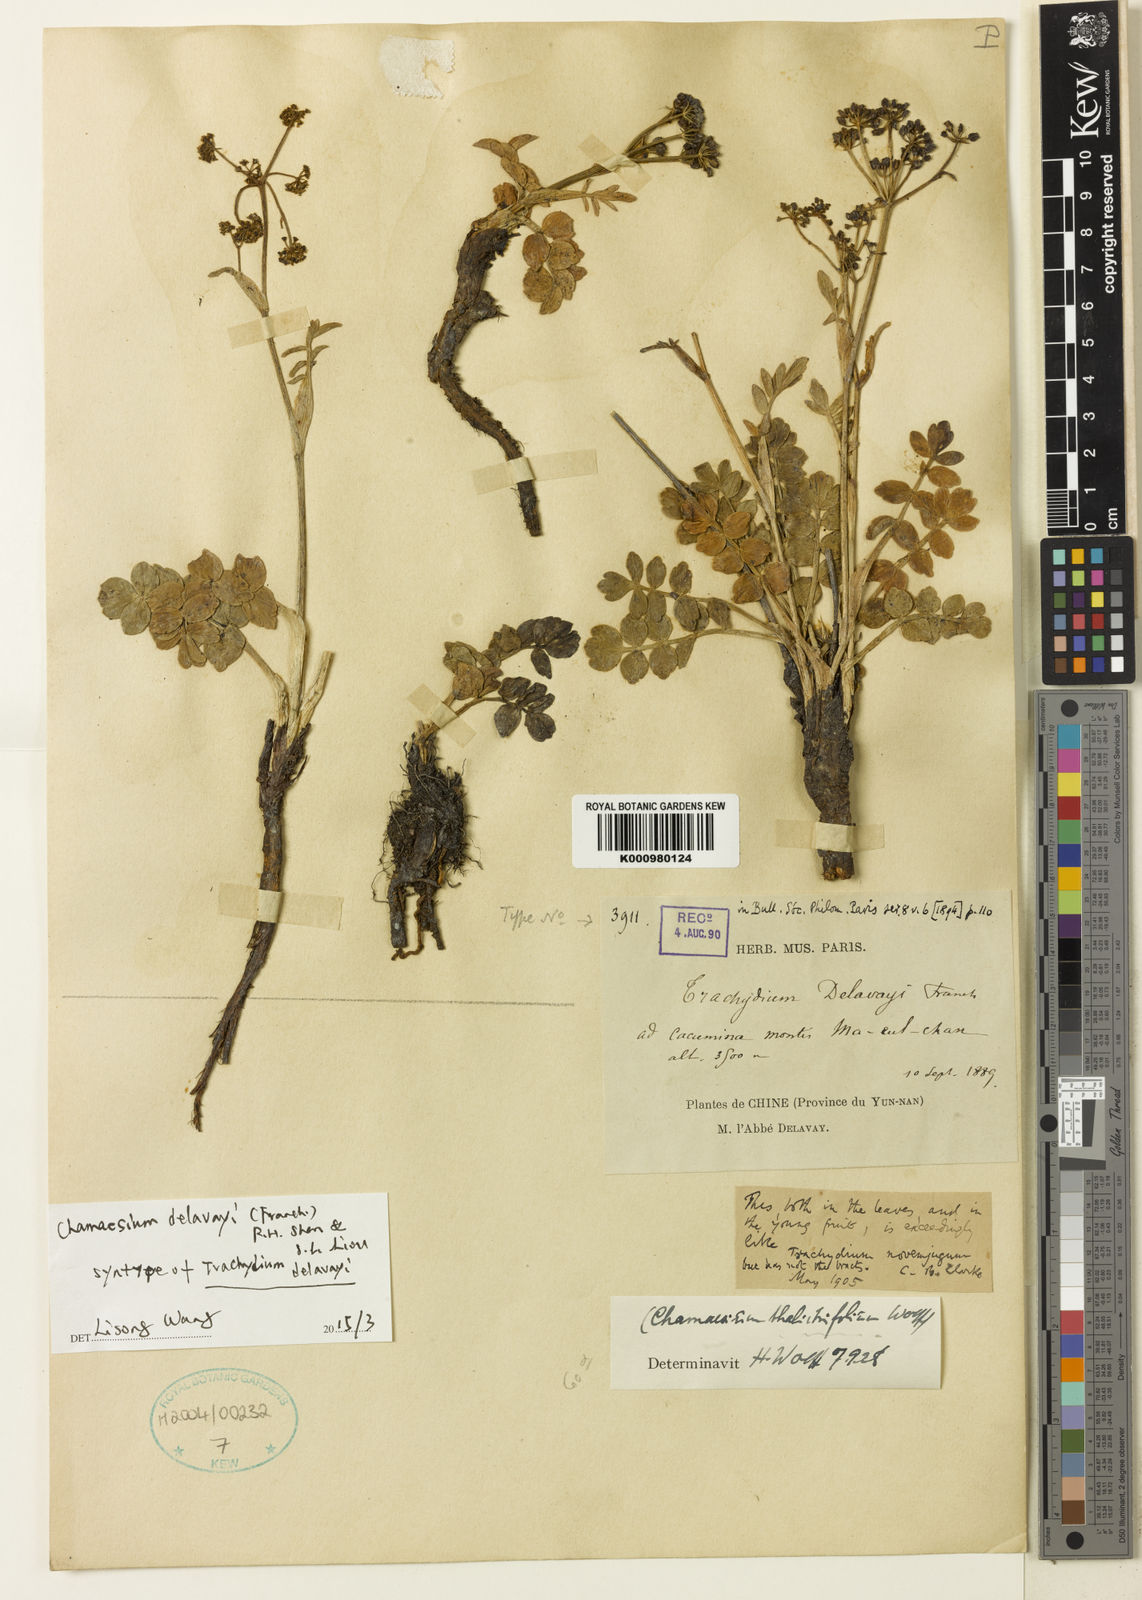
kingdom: Plantae
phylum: Tracheophyta
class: Magnoliopsida
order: Apiales
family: Apiaceae
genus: Chamaesium
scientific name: Chamaesium delavayi
